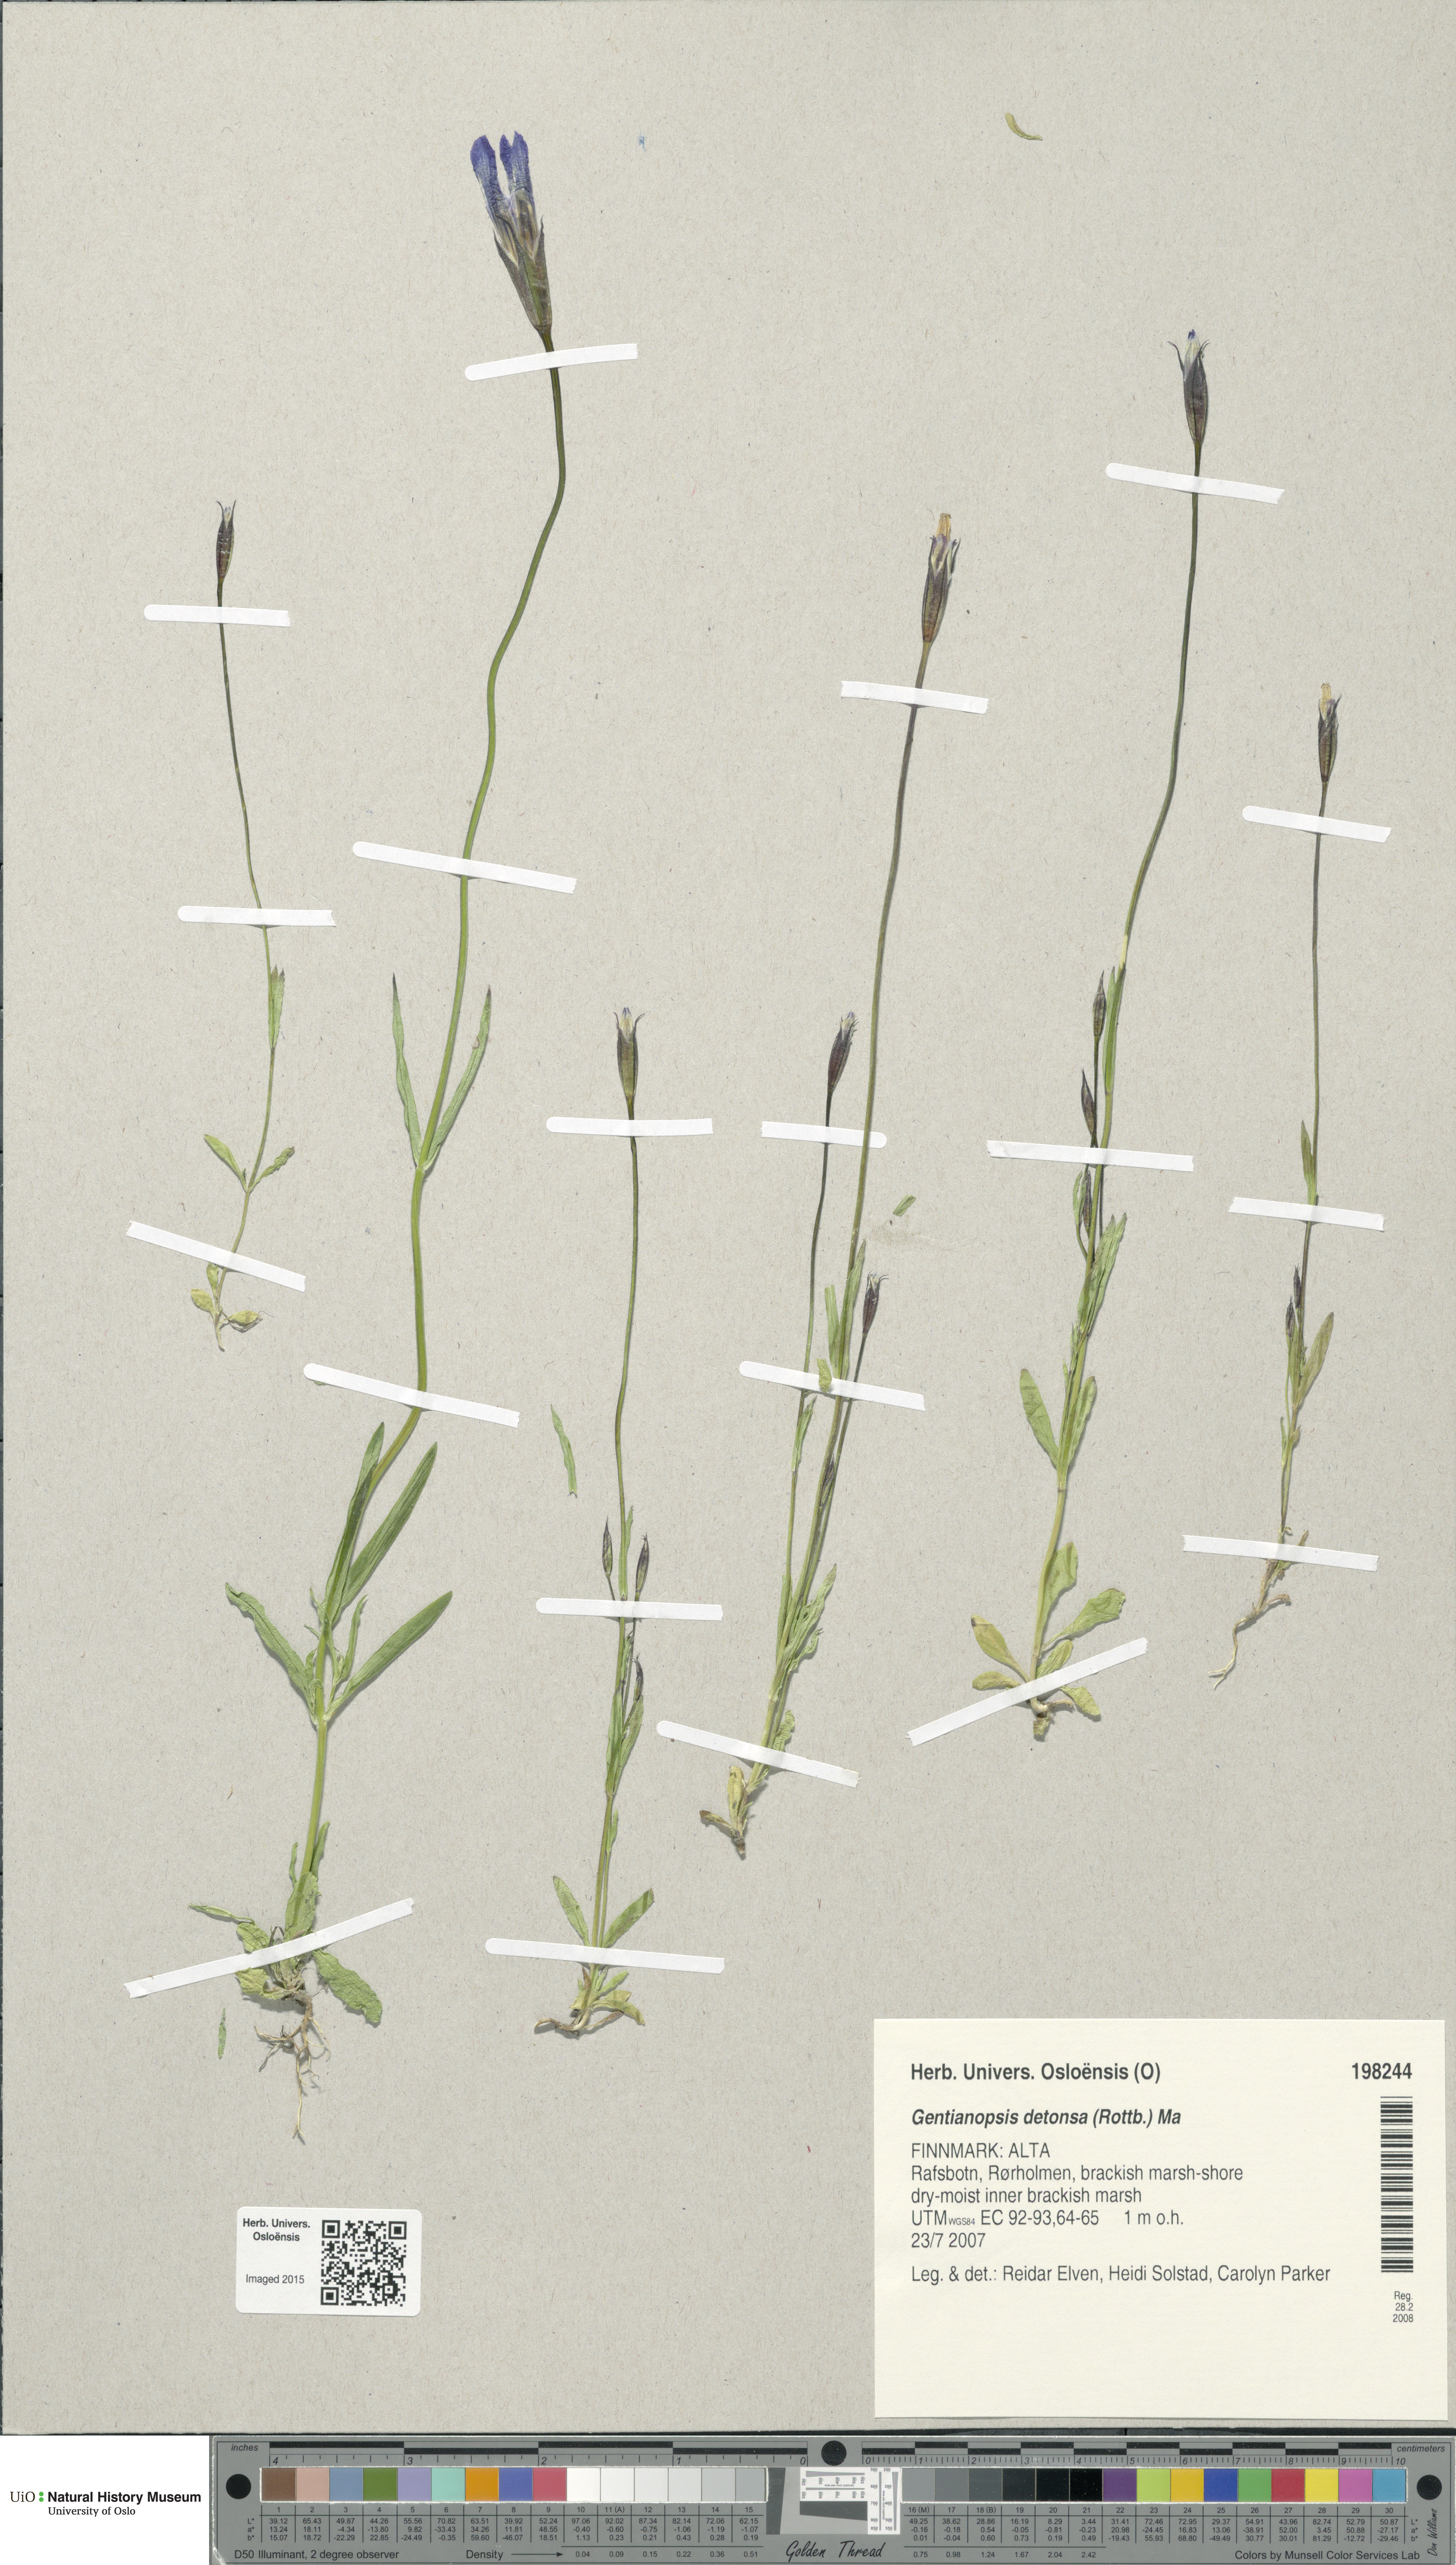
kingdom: Plantae
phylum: Tracheophyta
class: Magnoliopsida
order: Gentianales
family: Gentianaceae
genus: Gentianopsis
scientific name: Gentianopsis detonsa
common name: Fringed-gentian
